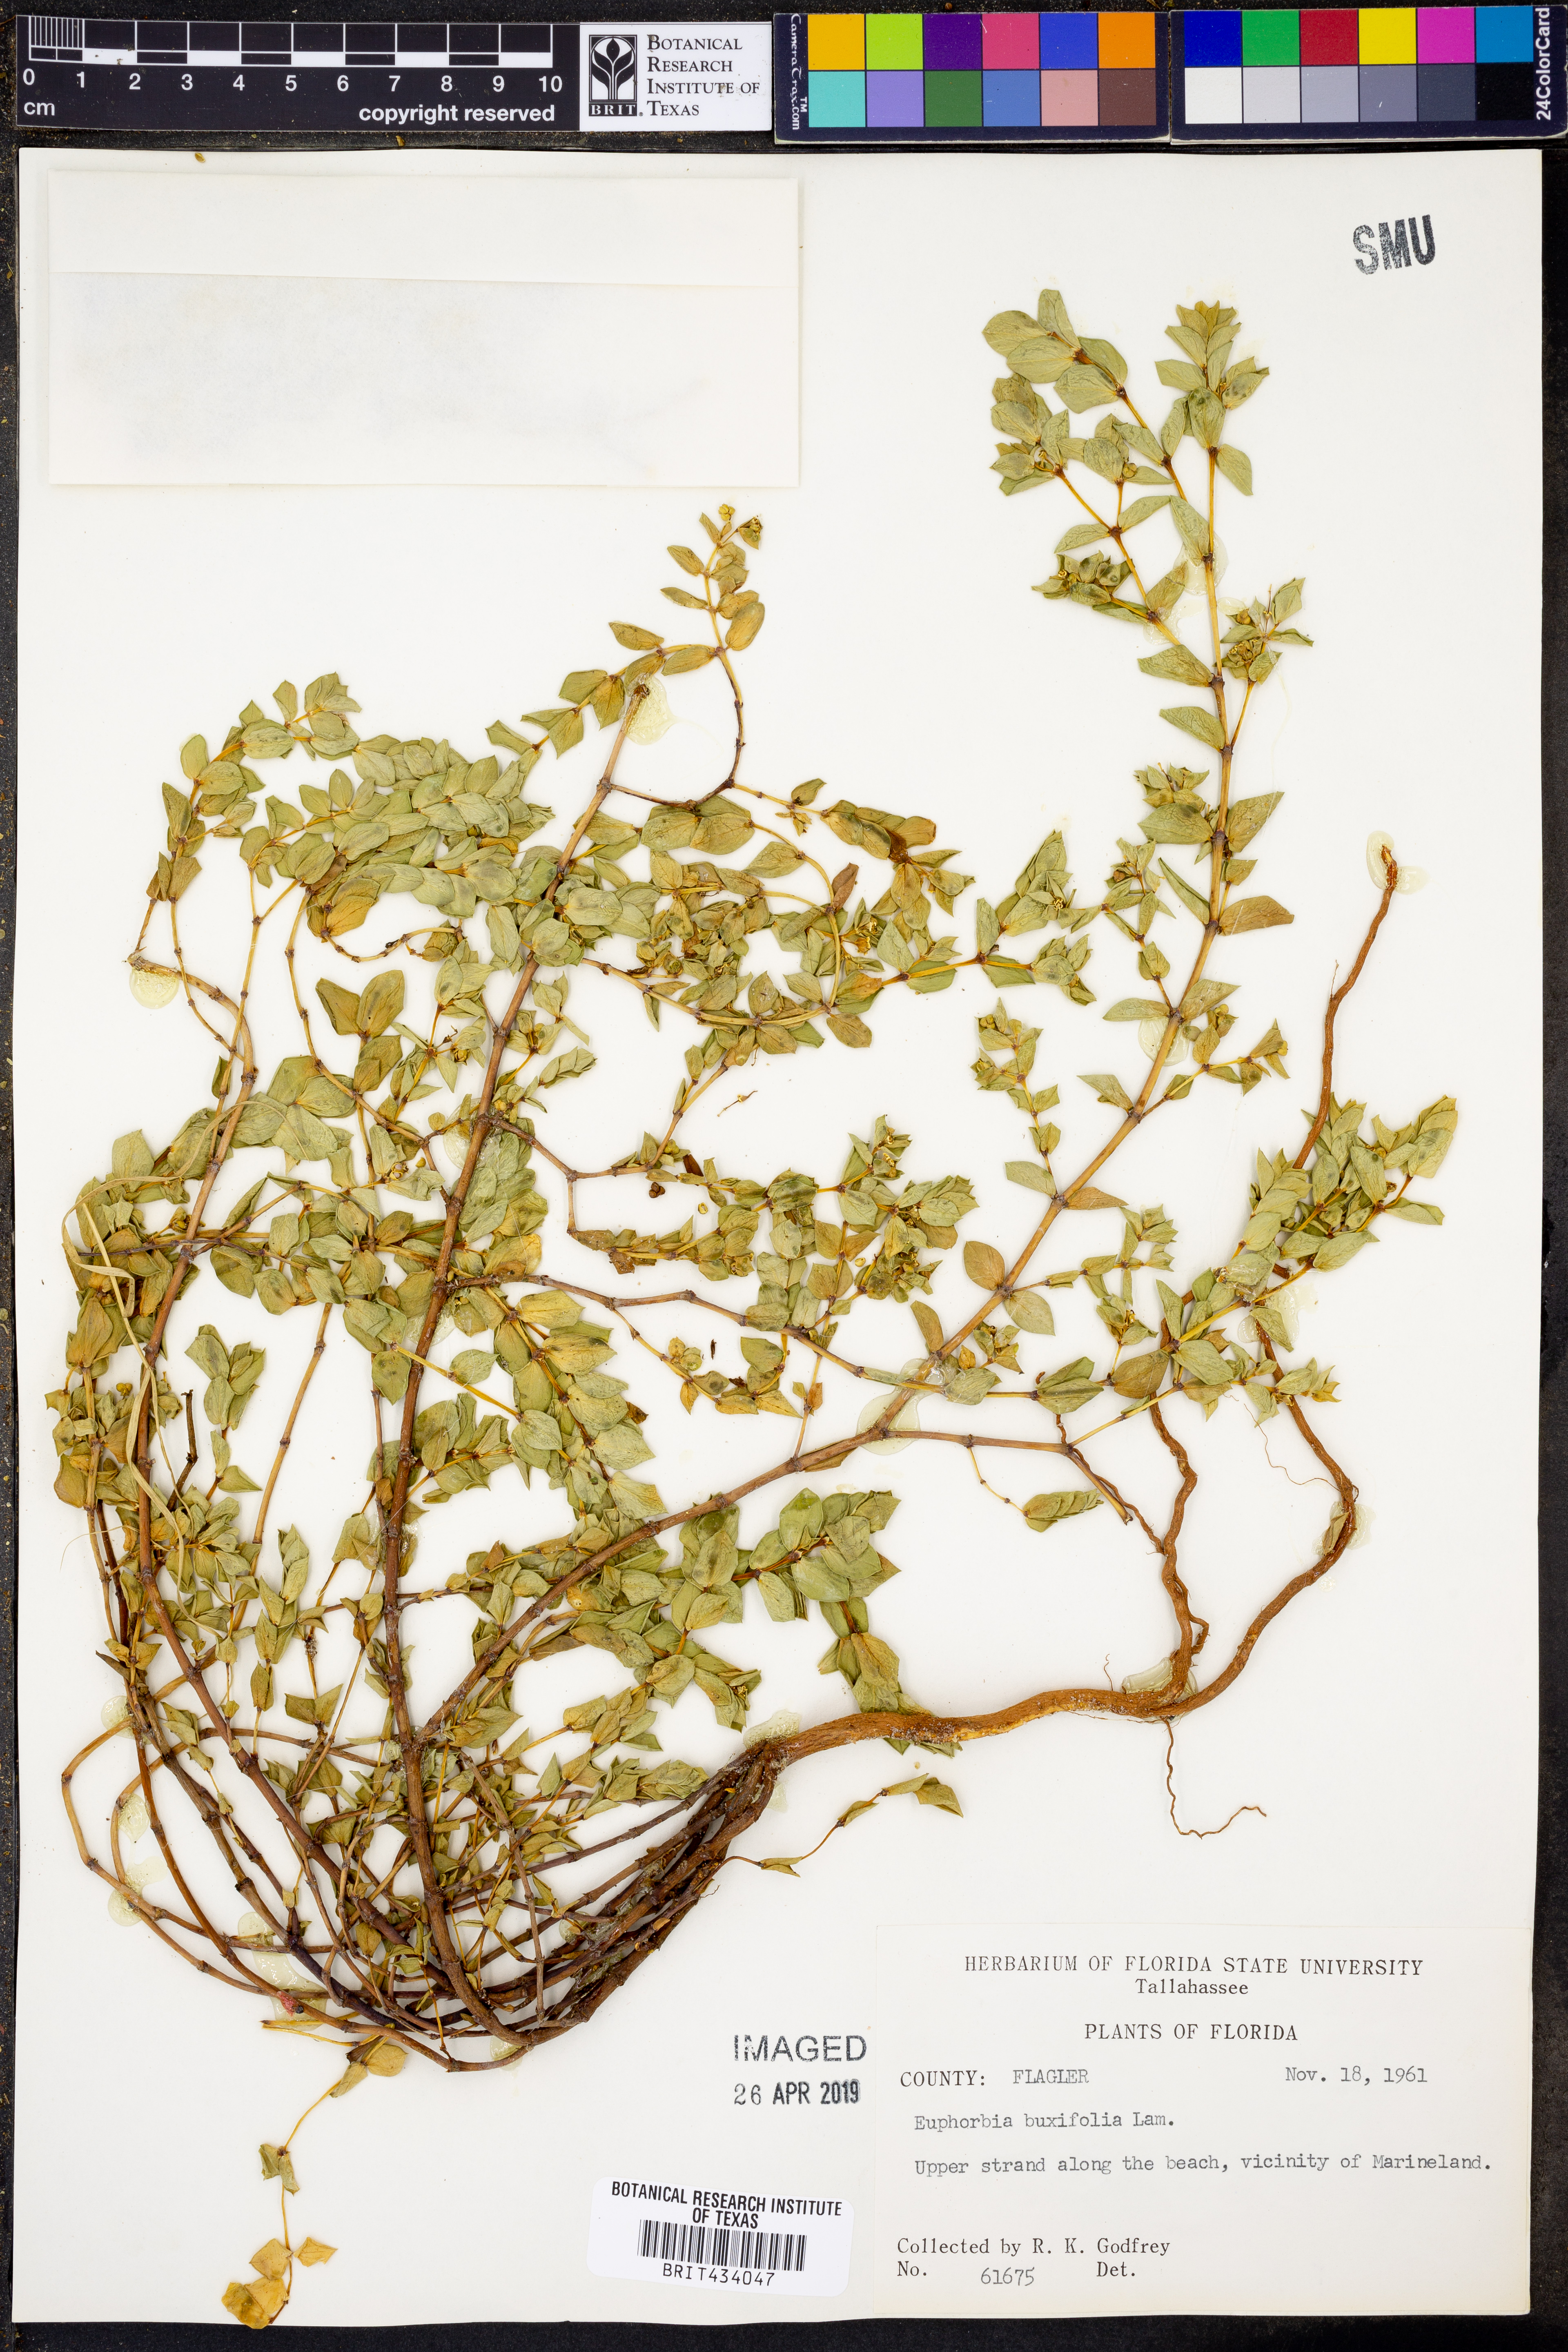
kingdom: Plantae
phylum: Tracheophyta
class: Magnoliopsida
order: Malpighiales
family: Euphorbiaceae
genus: Euphorbia
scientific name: Euphorbia mesembryanthemifolia
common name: Coastal beach sandmat
